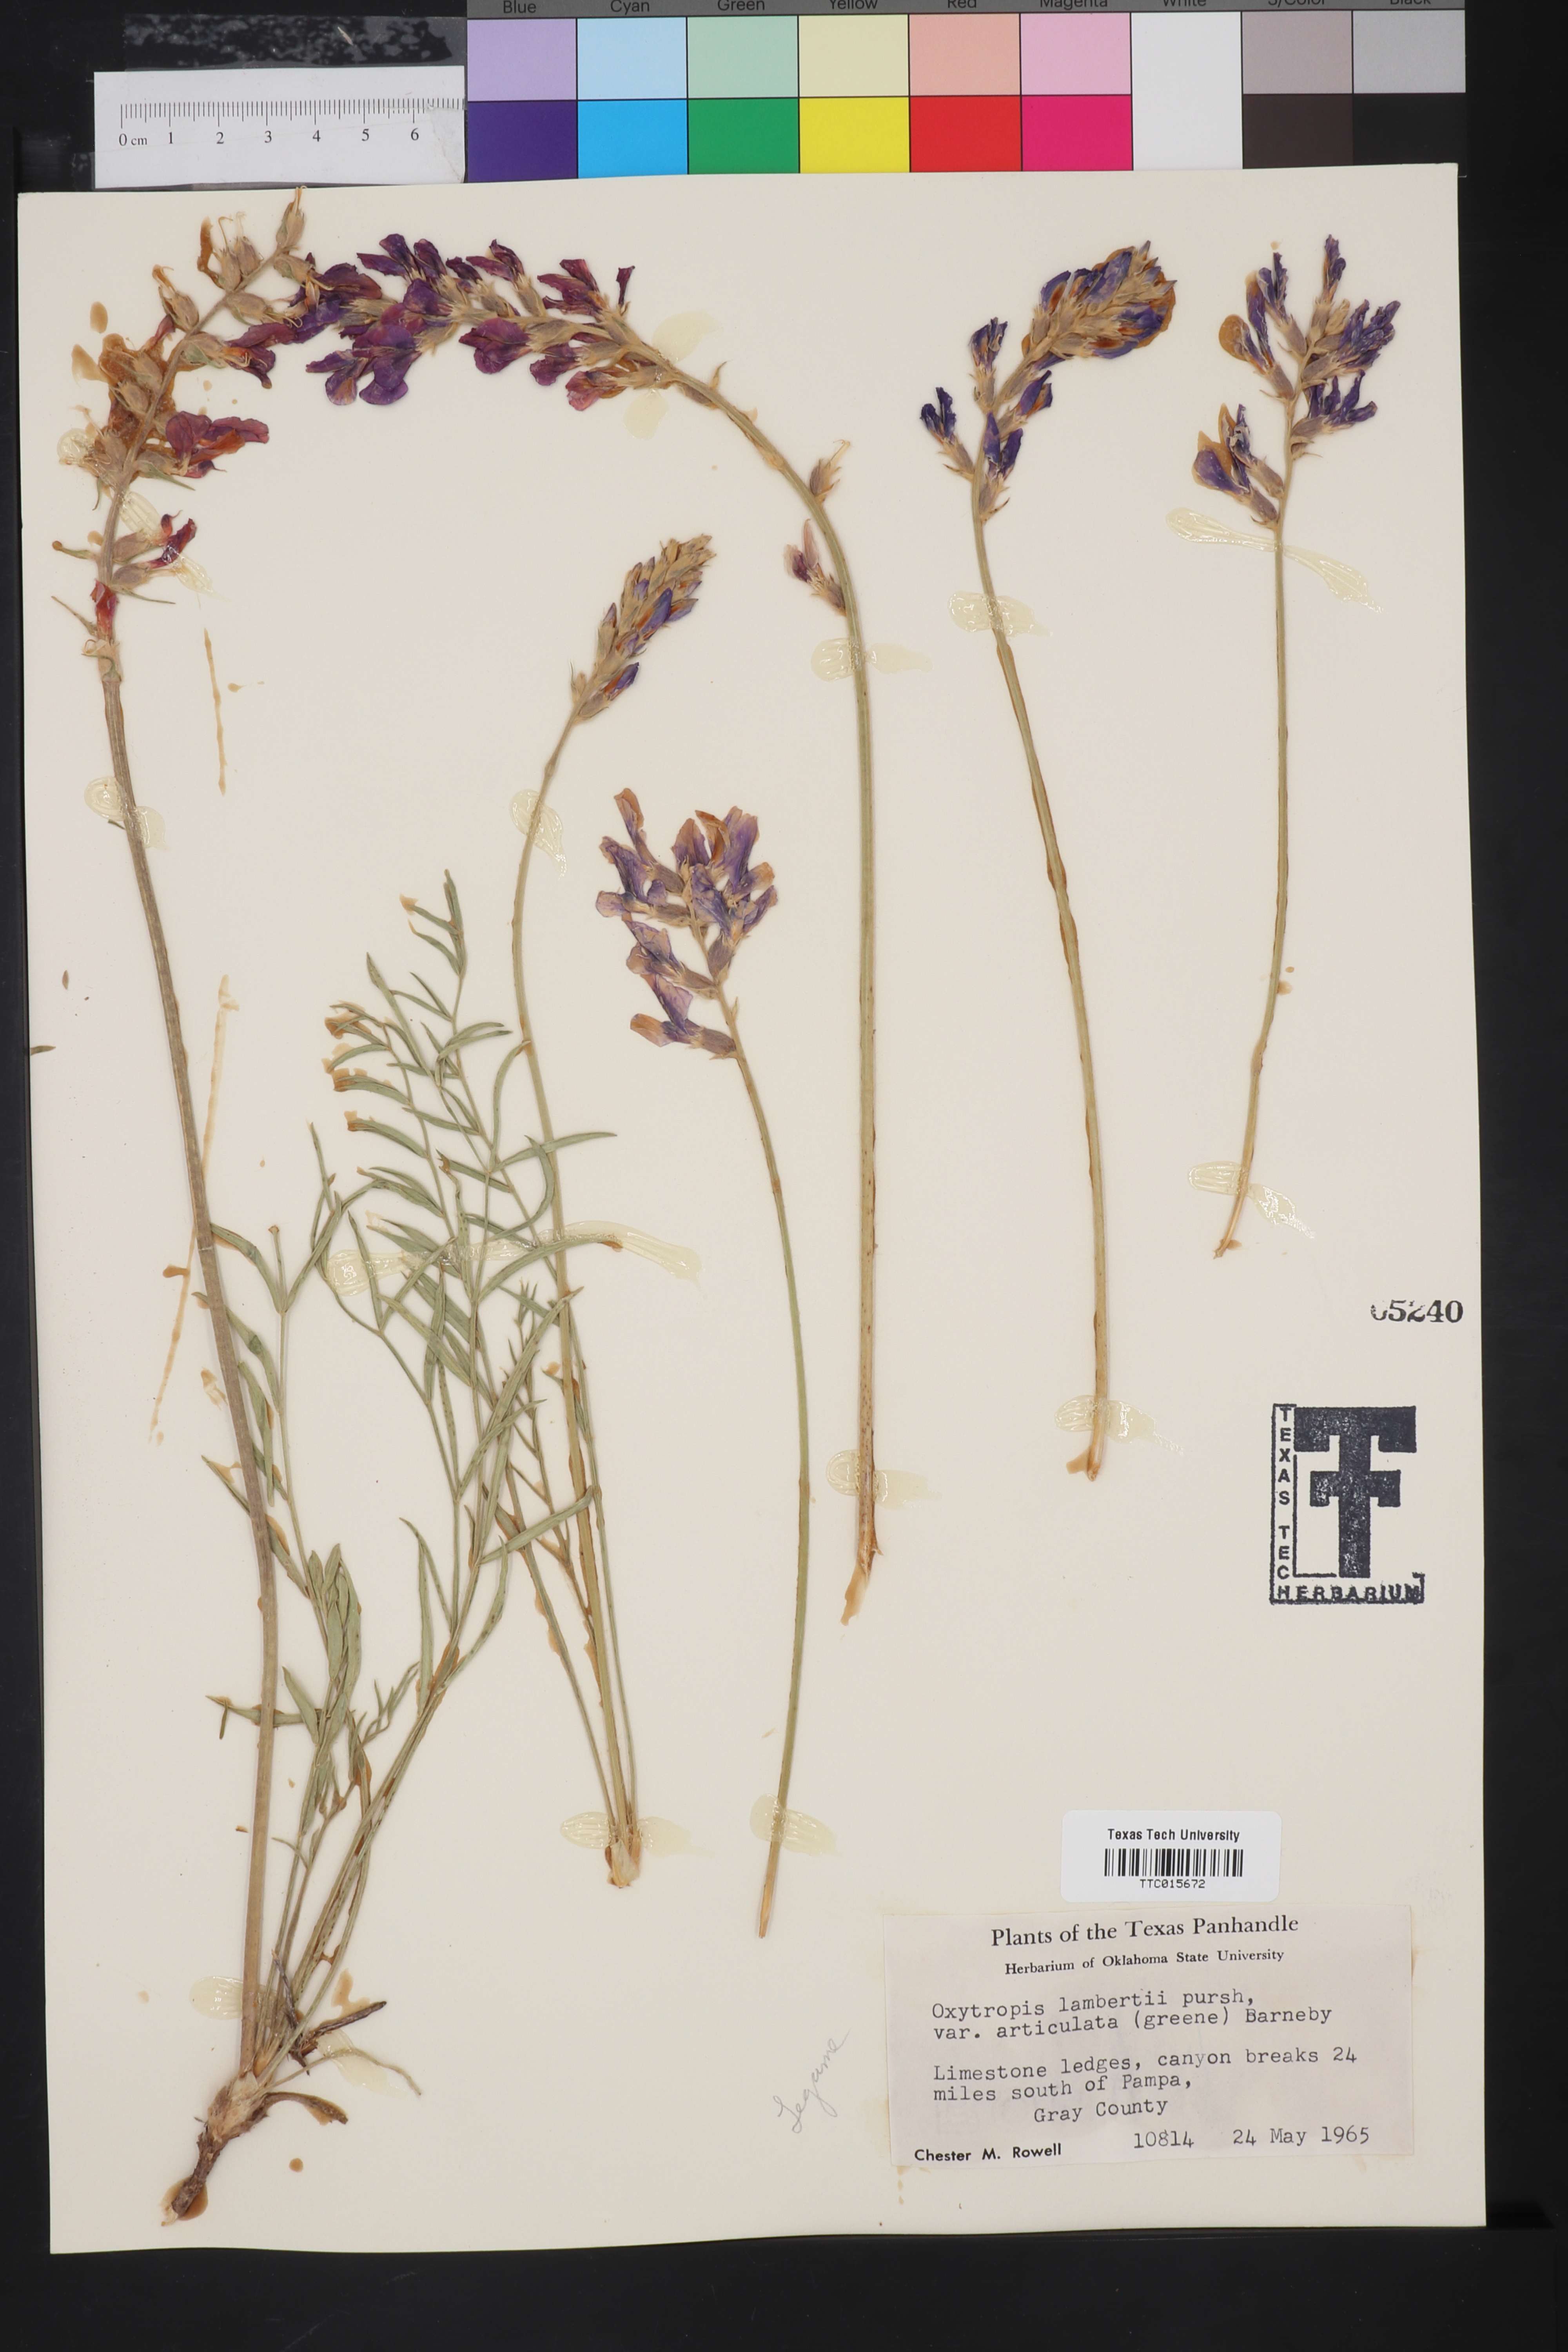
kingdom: Plantae
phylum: Tracheophyta
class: Magnoliopsida
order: Fabales
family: Fabaceae
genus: Oxytropis
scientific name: Oxytropis lambertii
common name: Purple locoweed
